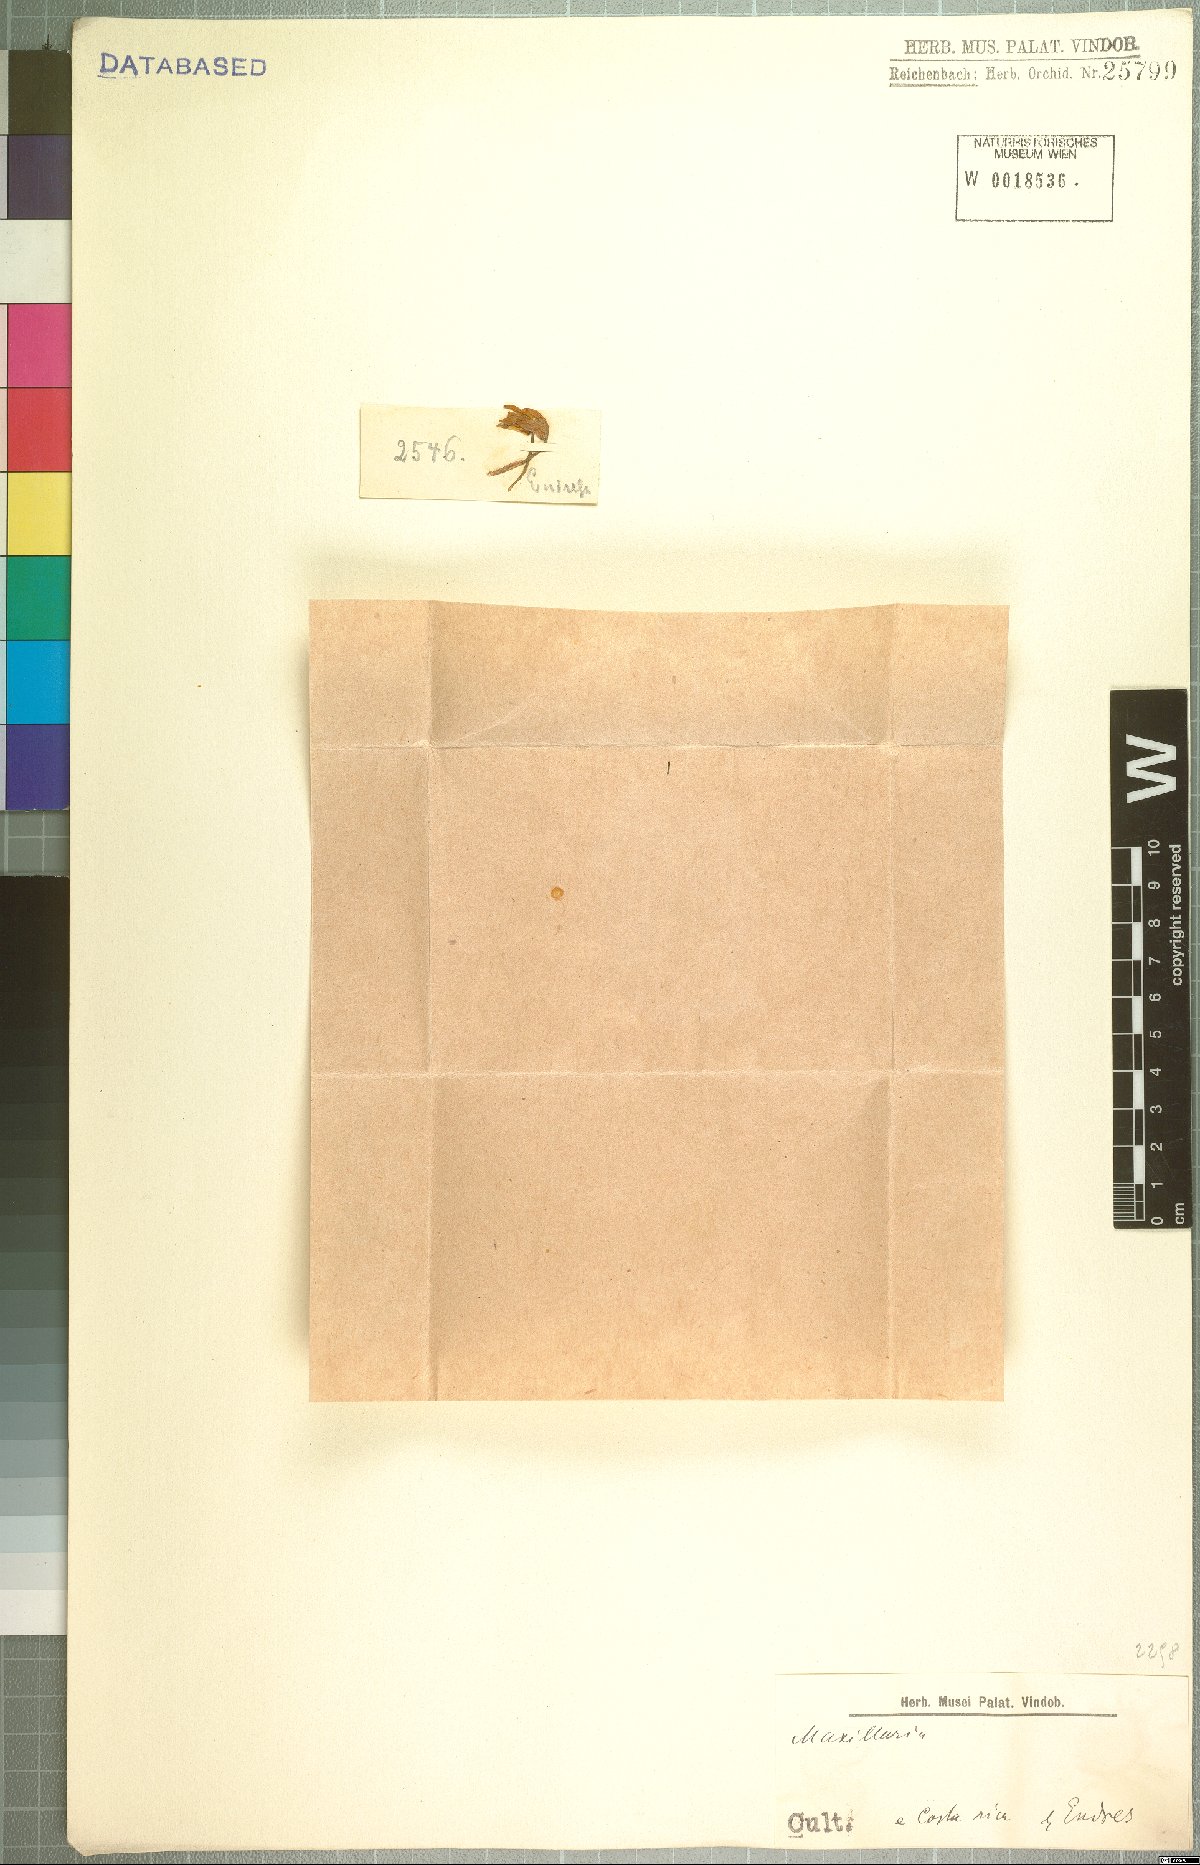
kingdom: Plantae
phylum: Tracheophyta
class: Liliopsida
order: Asparagales
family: Orchidaceae
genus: Maxillaria
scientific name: Maxillaria
